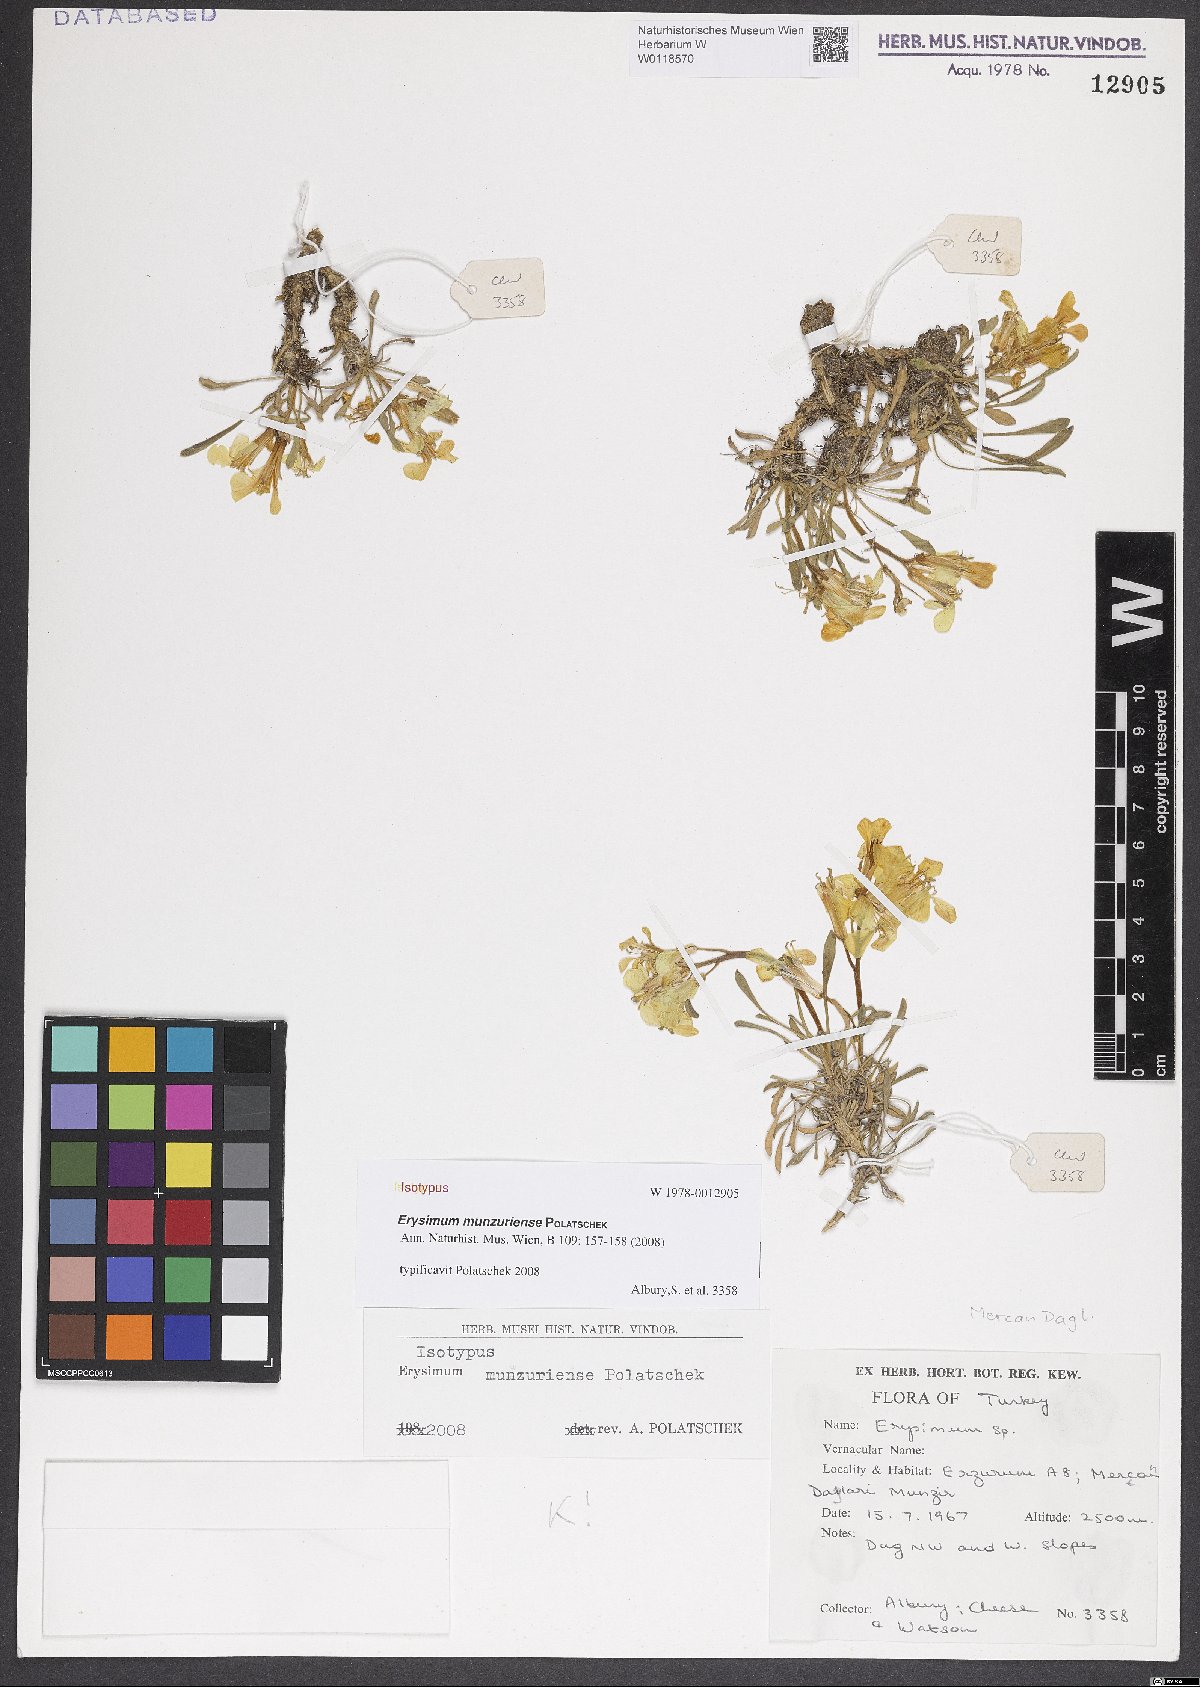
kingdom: Plantae
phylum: Tracheophyta
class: Magnoliopsida
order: Brassicales
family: Brassicaceae
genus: Erysimum
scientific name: Erysimum munzuriense
